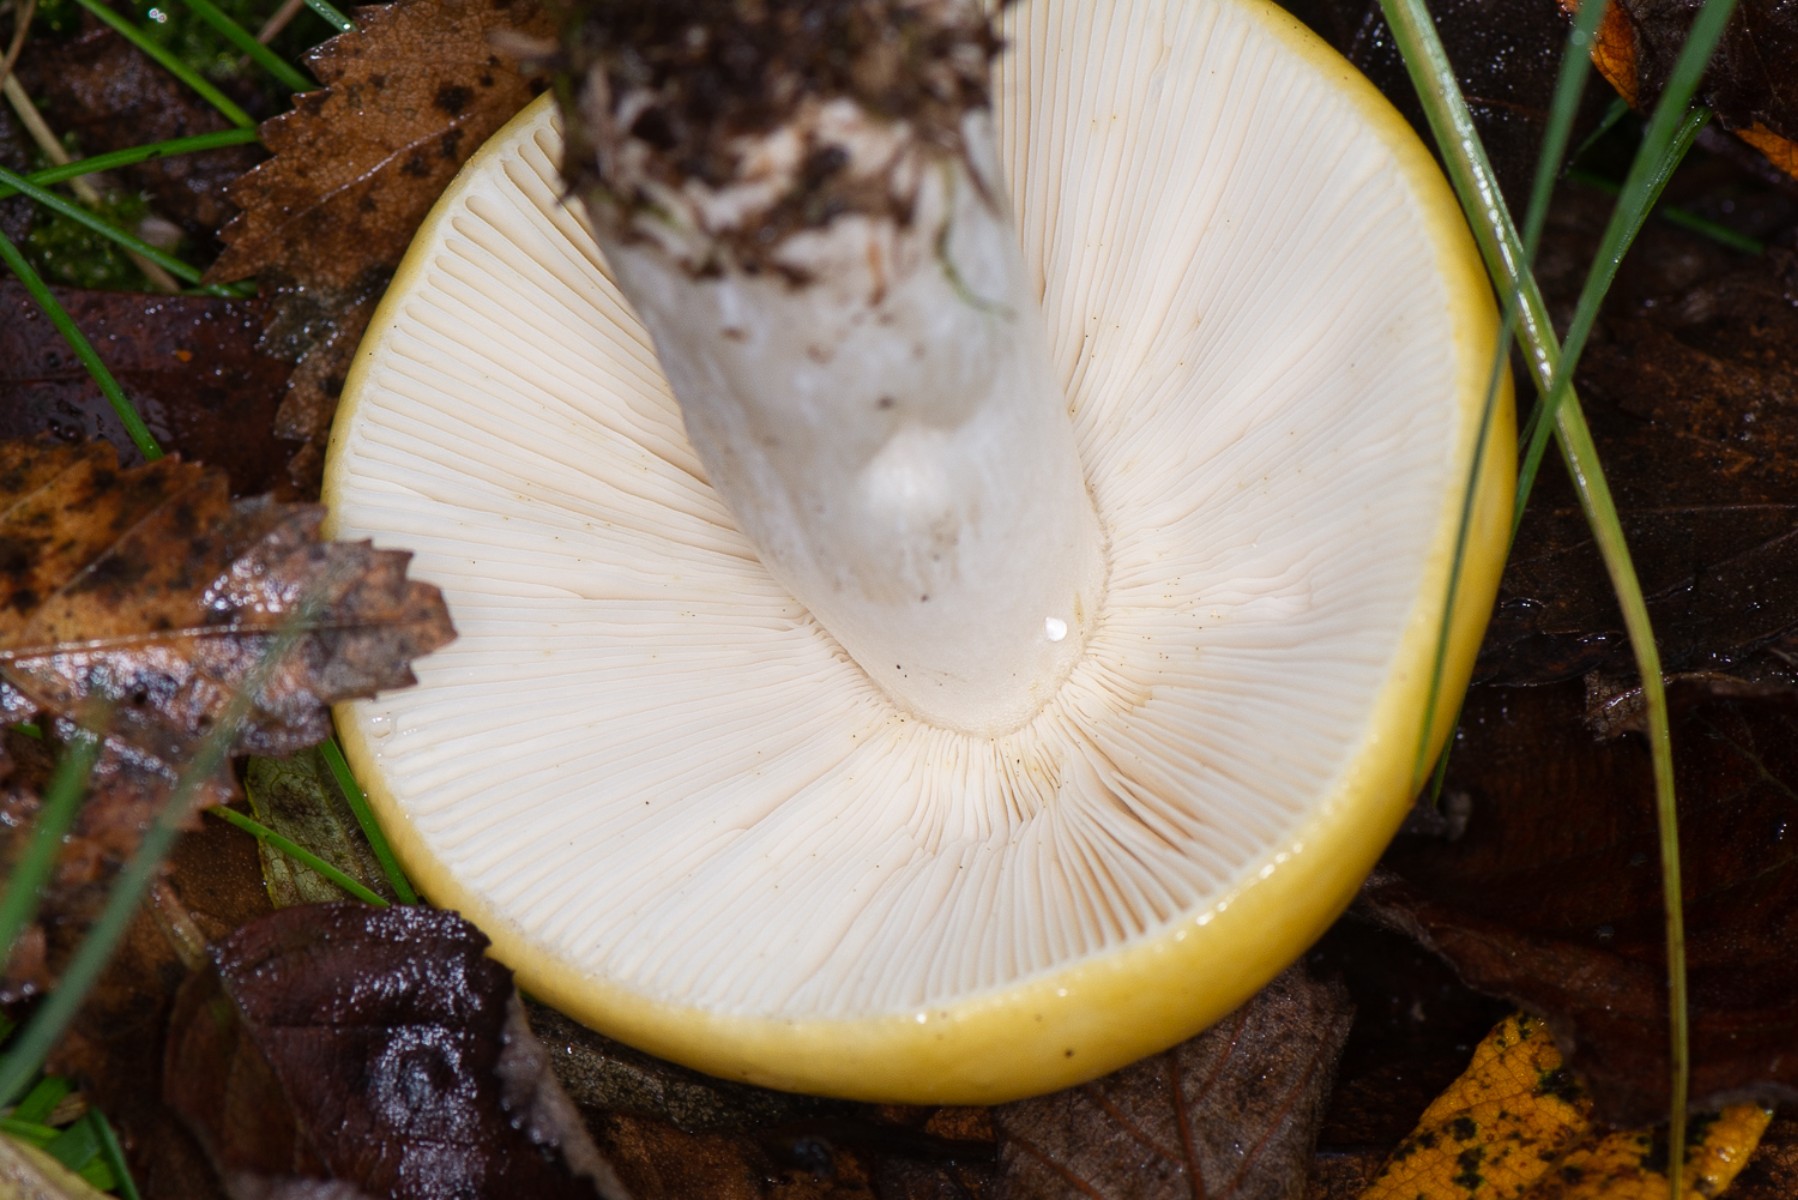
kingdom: Fungi
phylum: Basidiomycota
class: Agaricomycetes
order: Russulales
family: Russulaceae
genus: Russula
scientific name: Russula claroflava
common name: birke-skørhat
